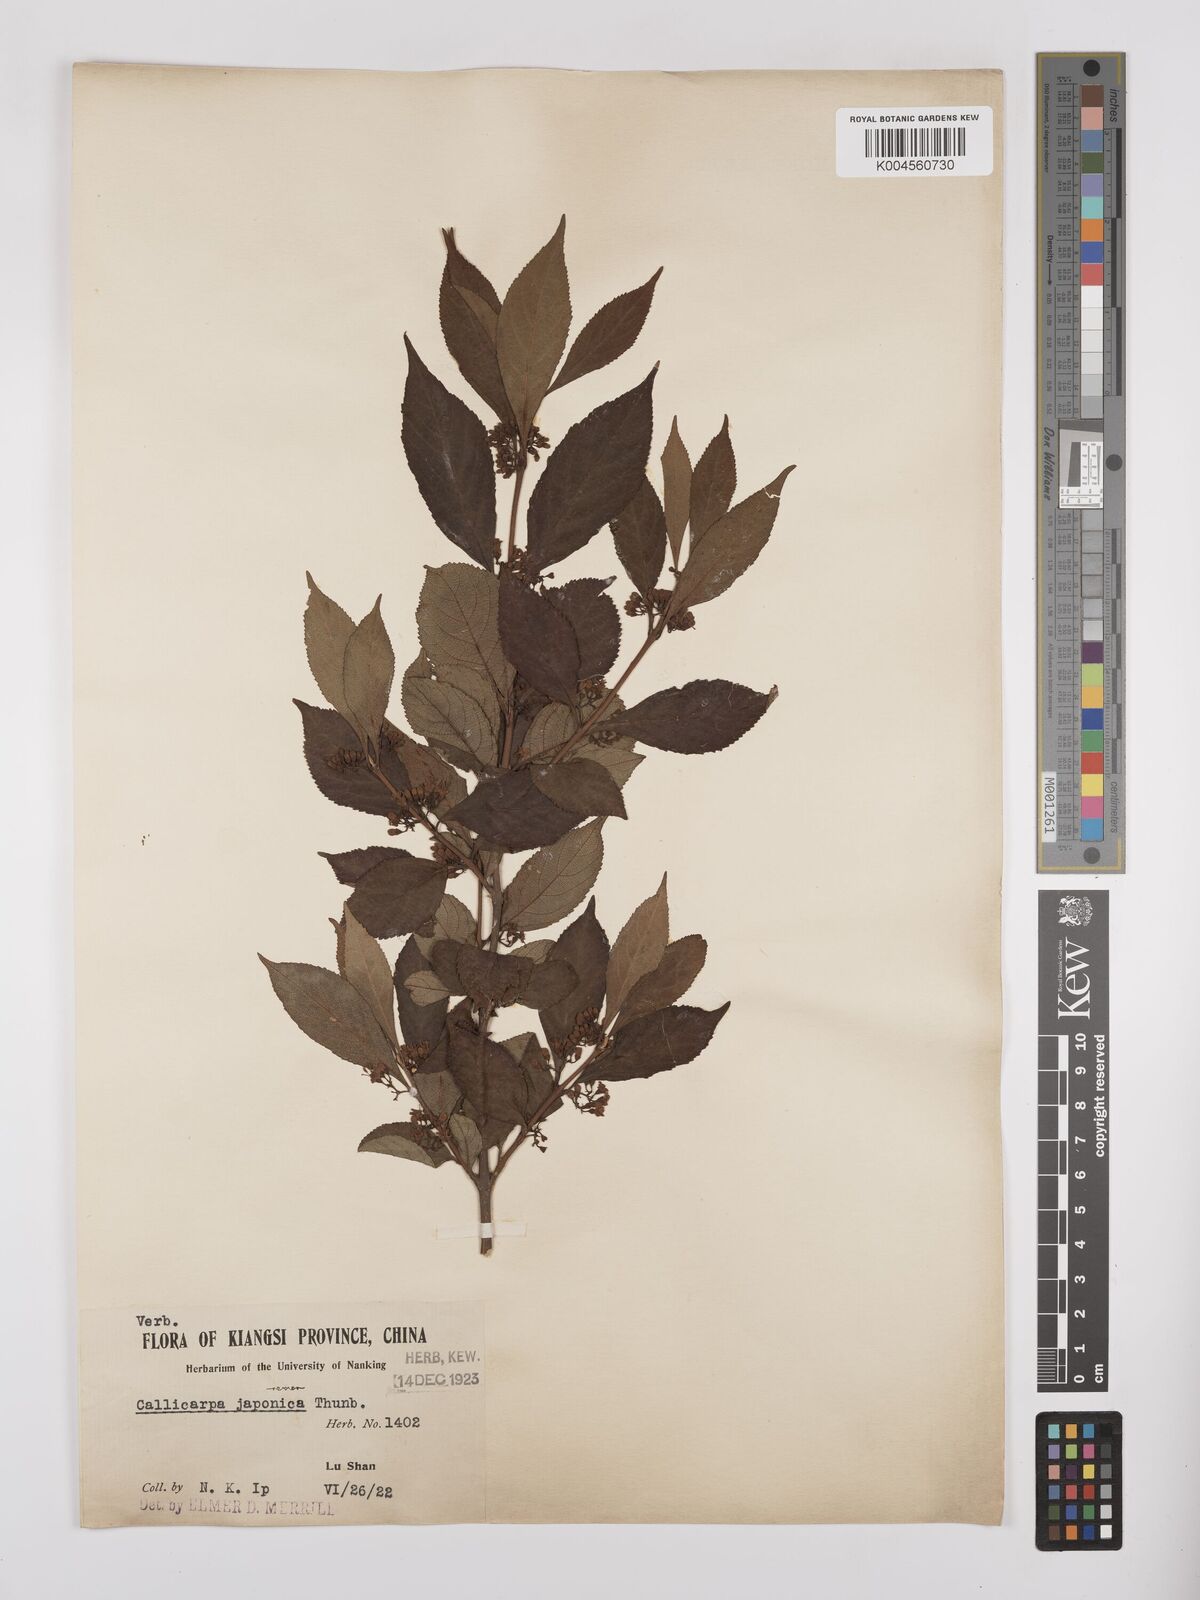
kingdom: Plantae
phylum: Tracheophyta
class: Magnoliopsida
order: Lamiales
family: Lamiaceae
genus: Callicarpa
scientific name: Callicarpa japonica
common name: Japanese beauty-berry
